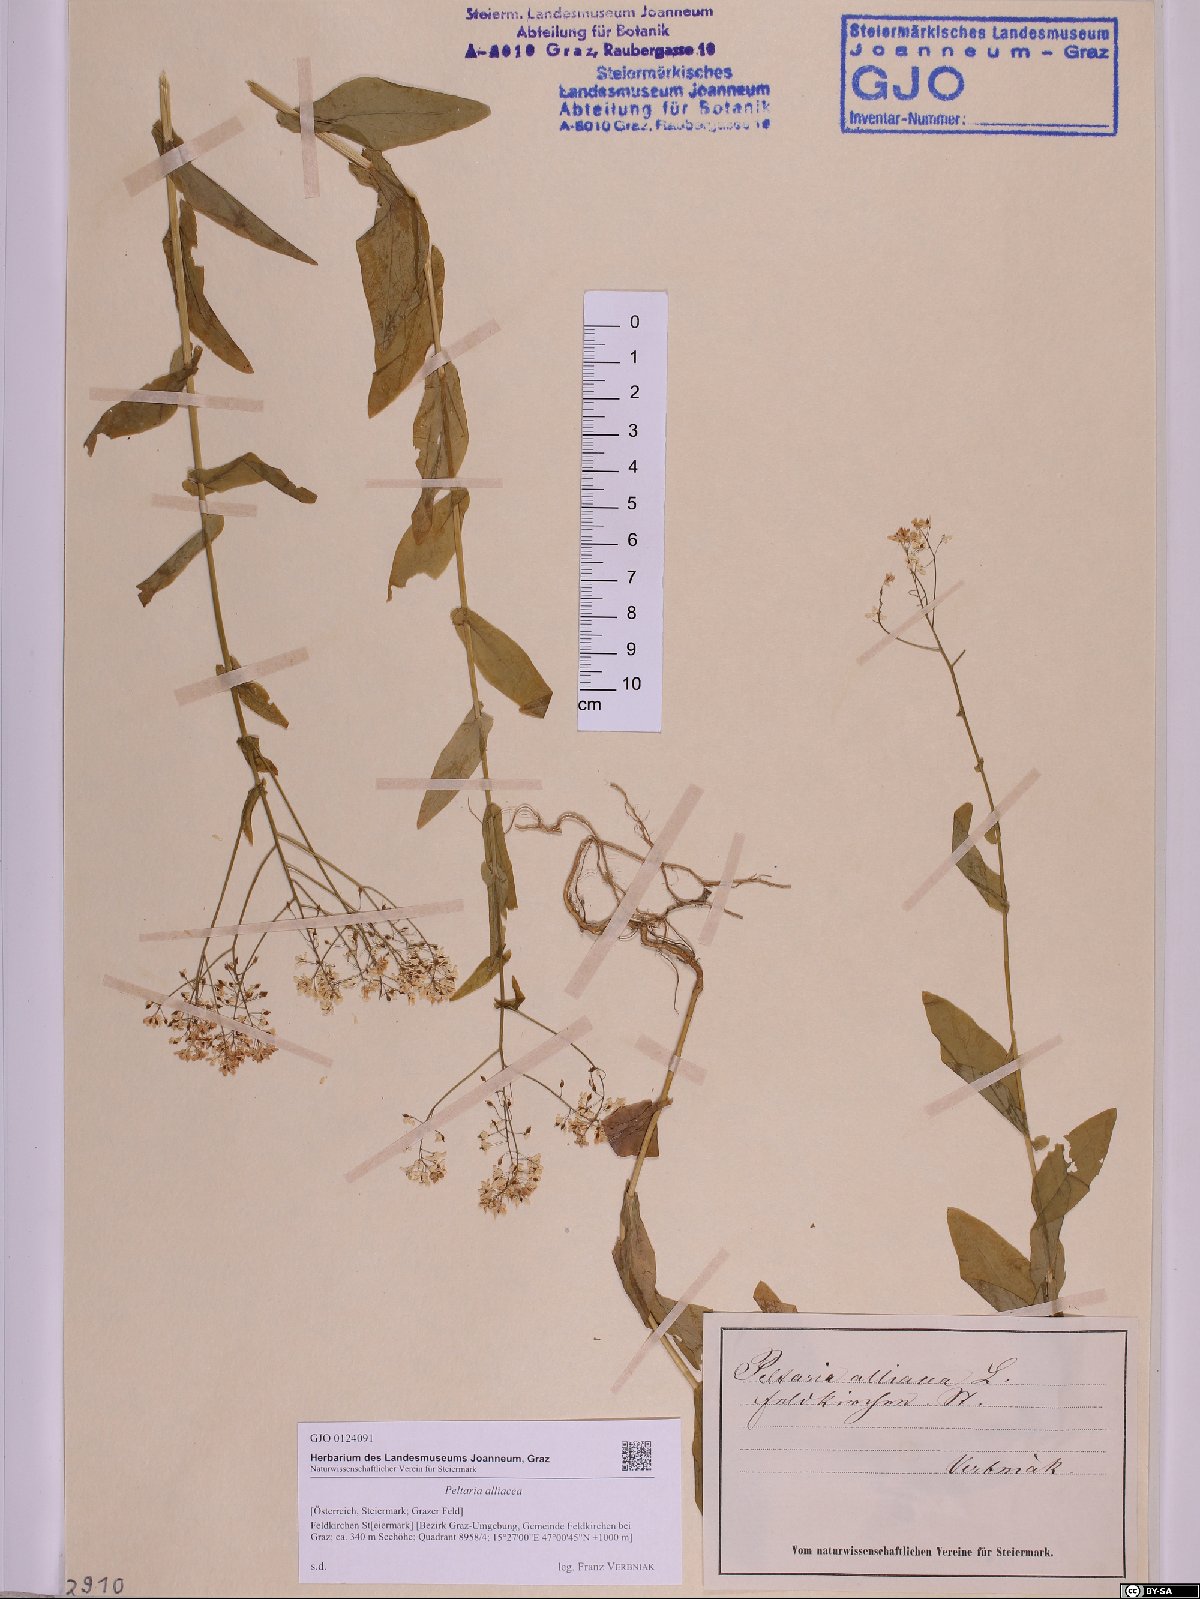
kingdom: Plantae
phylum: Tracheophyta
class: Magnoliopsida
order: Brassicales
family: Brassicaceae
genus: Peltaria
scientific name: Peltaria alliacea
